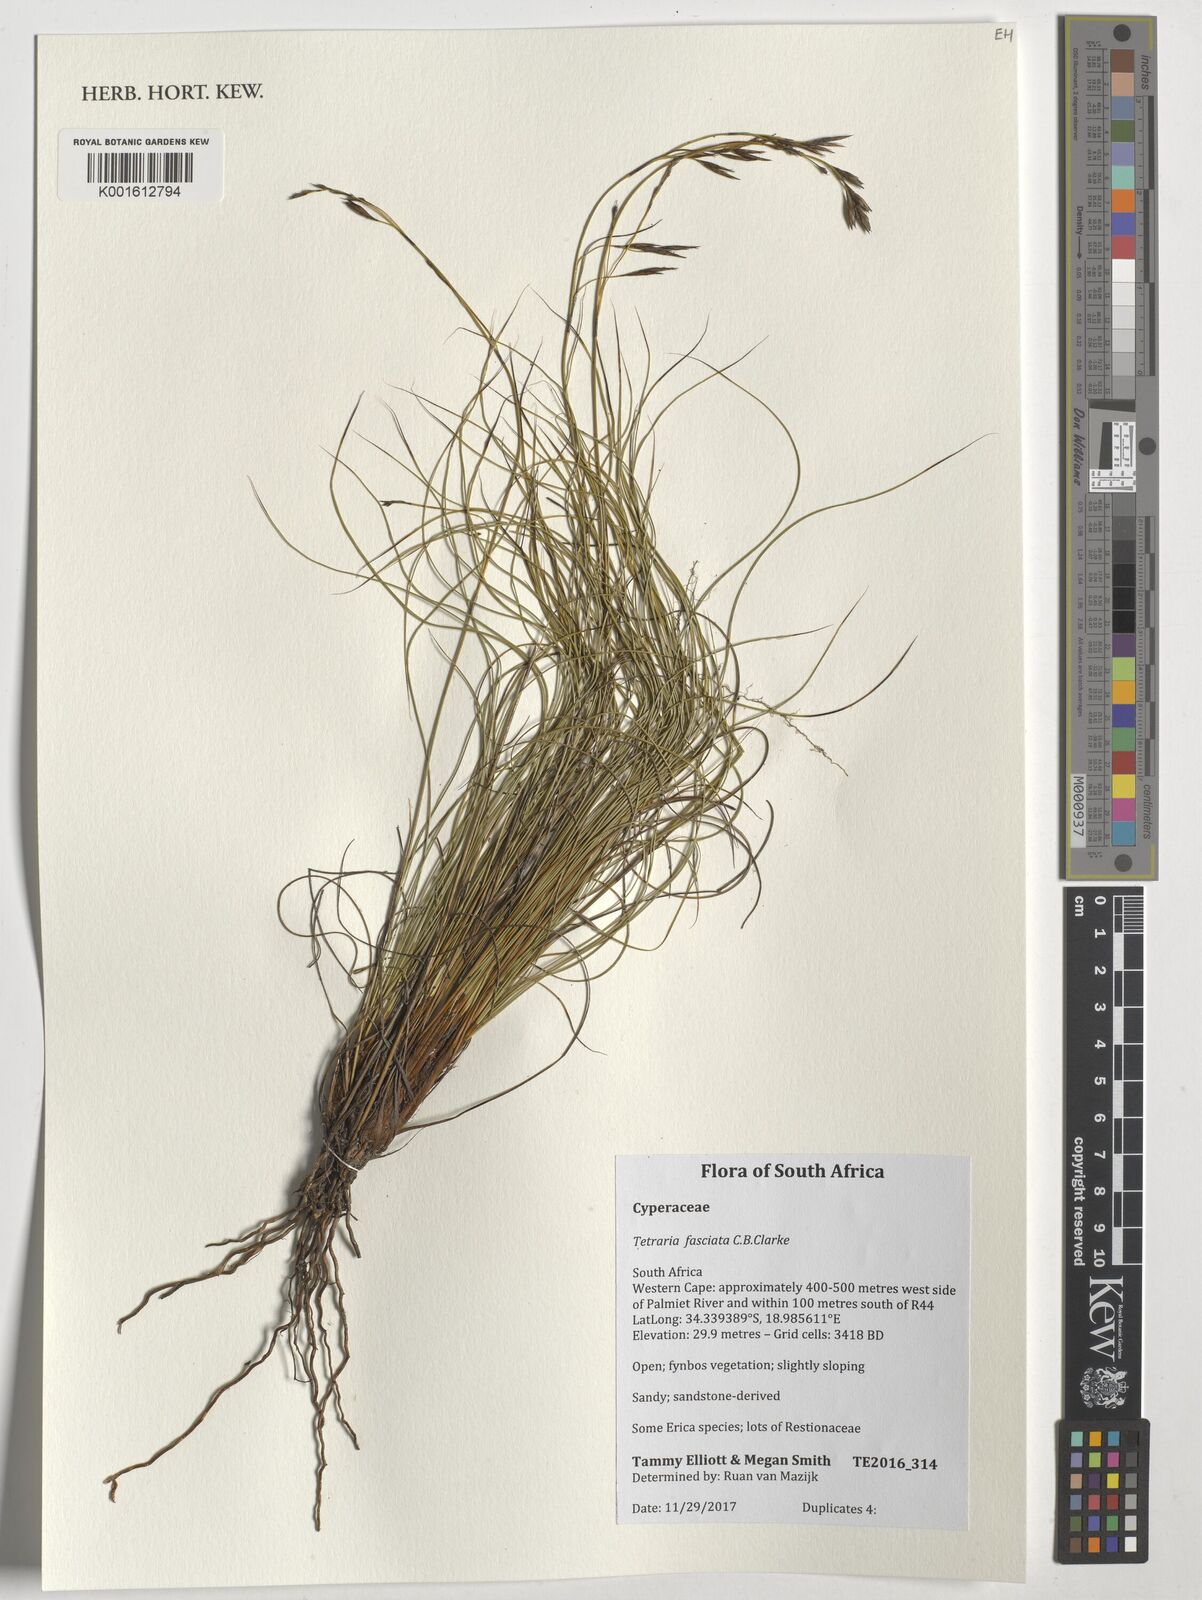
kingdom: Plantae
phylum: Tracheophyta
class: Liliopsida
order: Poales
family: Cyperaceae
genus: Tetraria
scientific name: Tetraria fasciata
